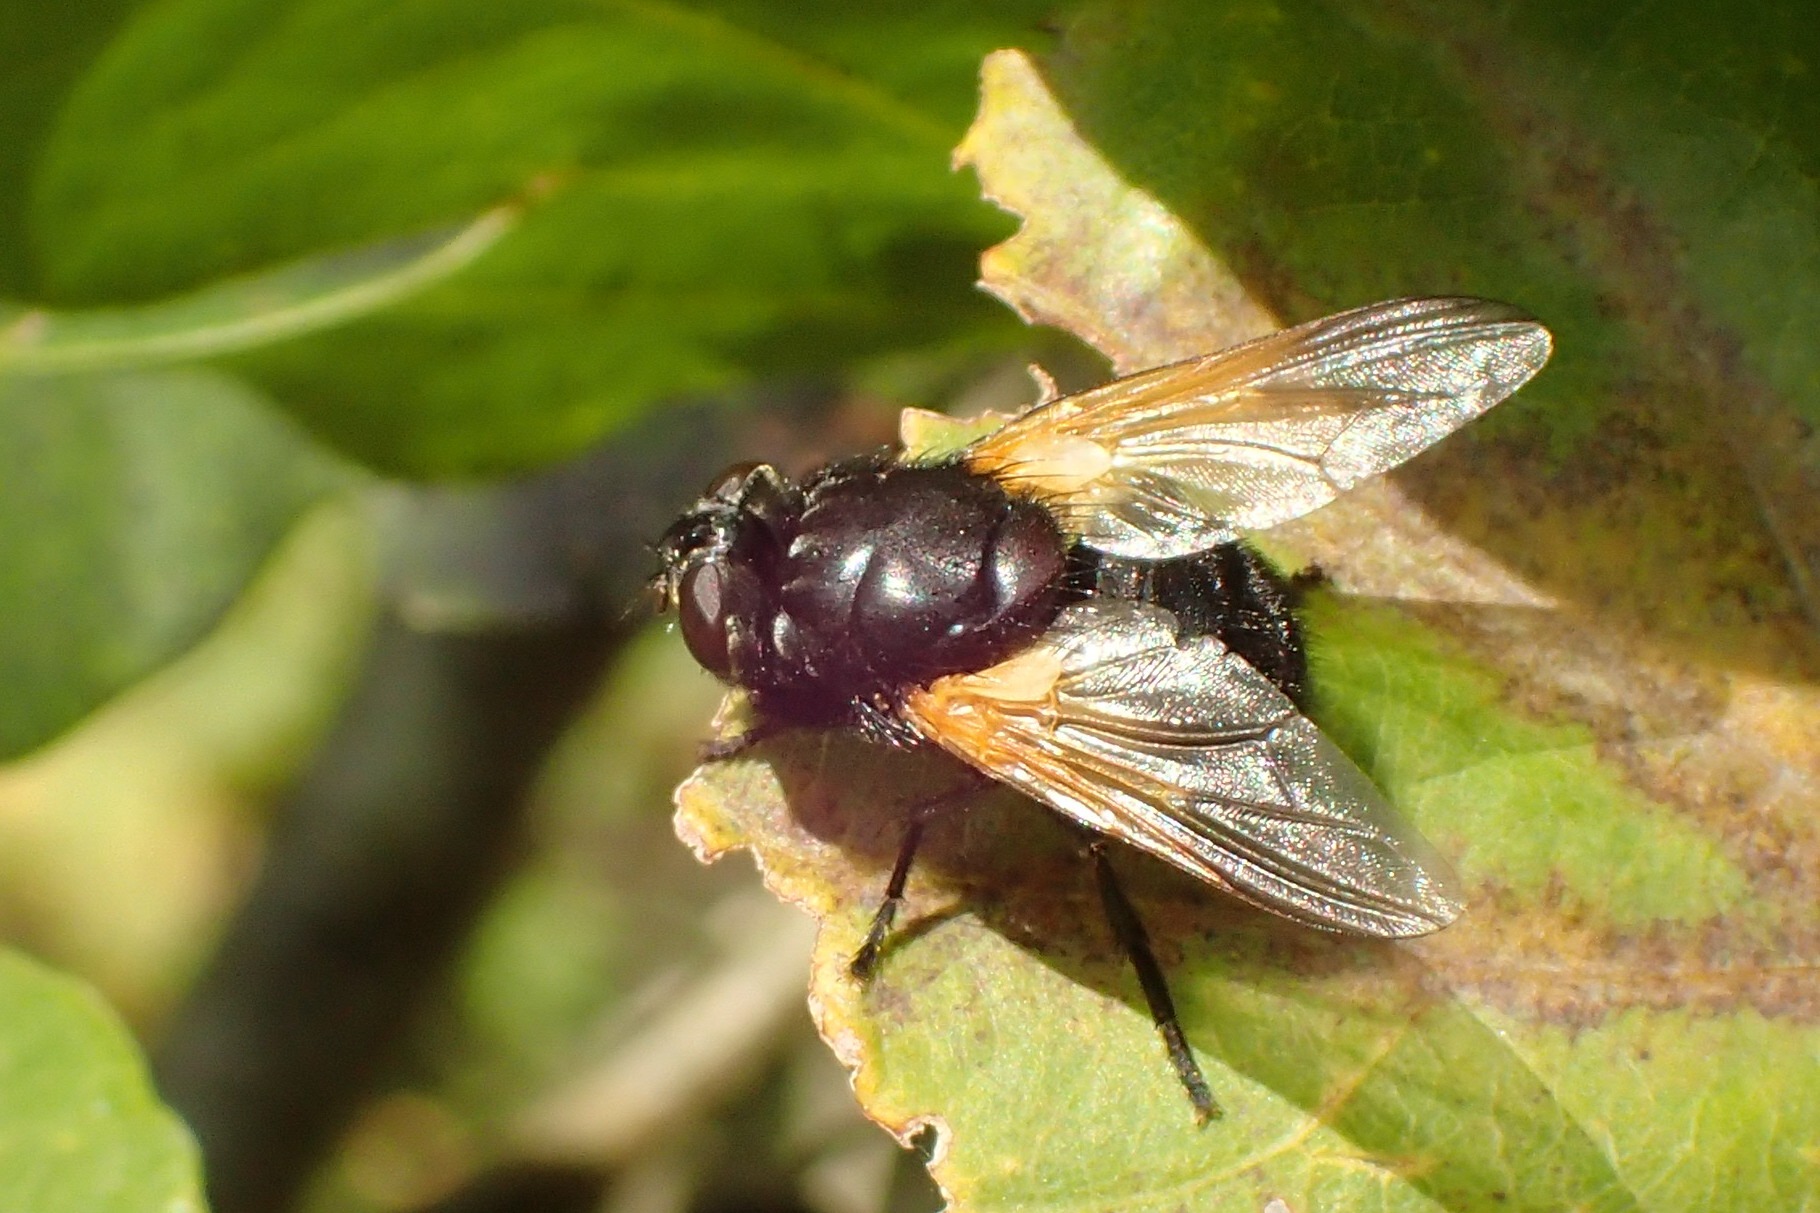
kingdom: Animalia
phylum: Arthropoda
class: Insecta
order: Diptera
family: Muscidae
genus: Mesembrina
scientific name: Mesembrina meridiana
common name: Gulvinget flue
